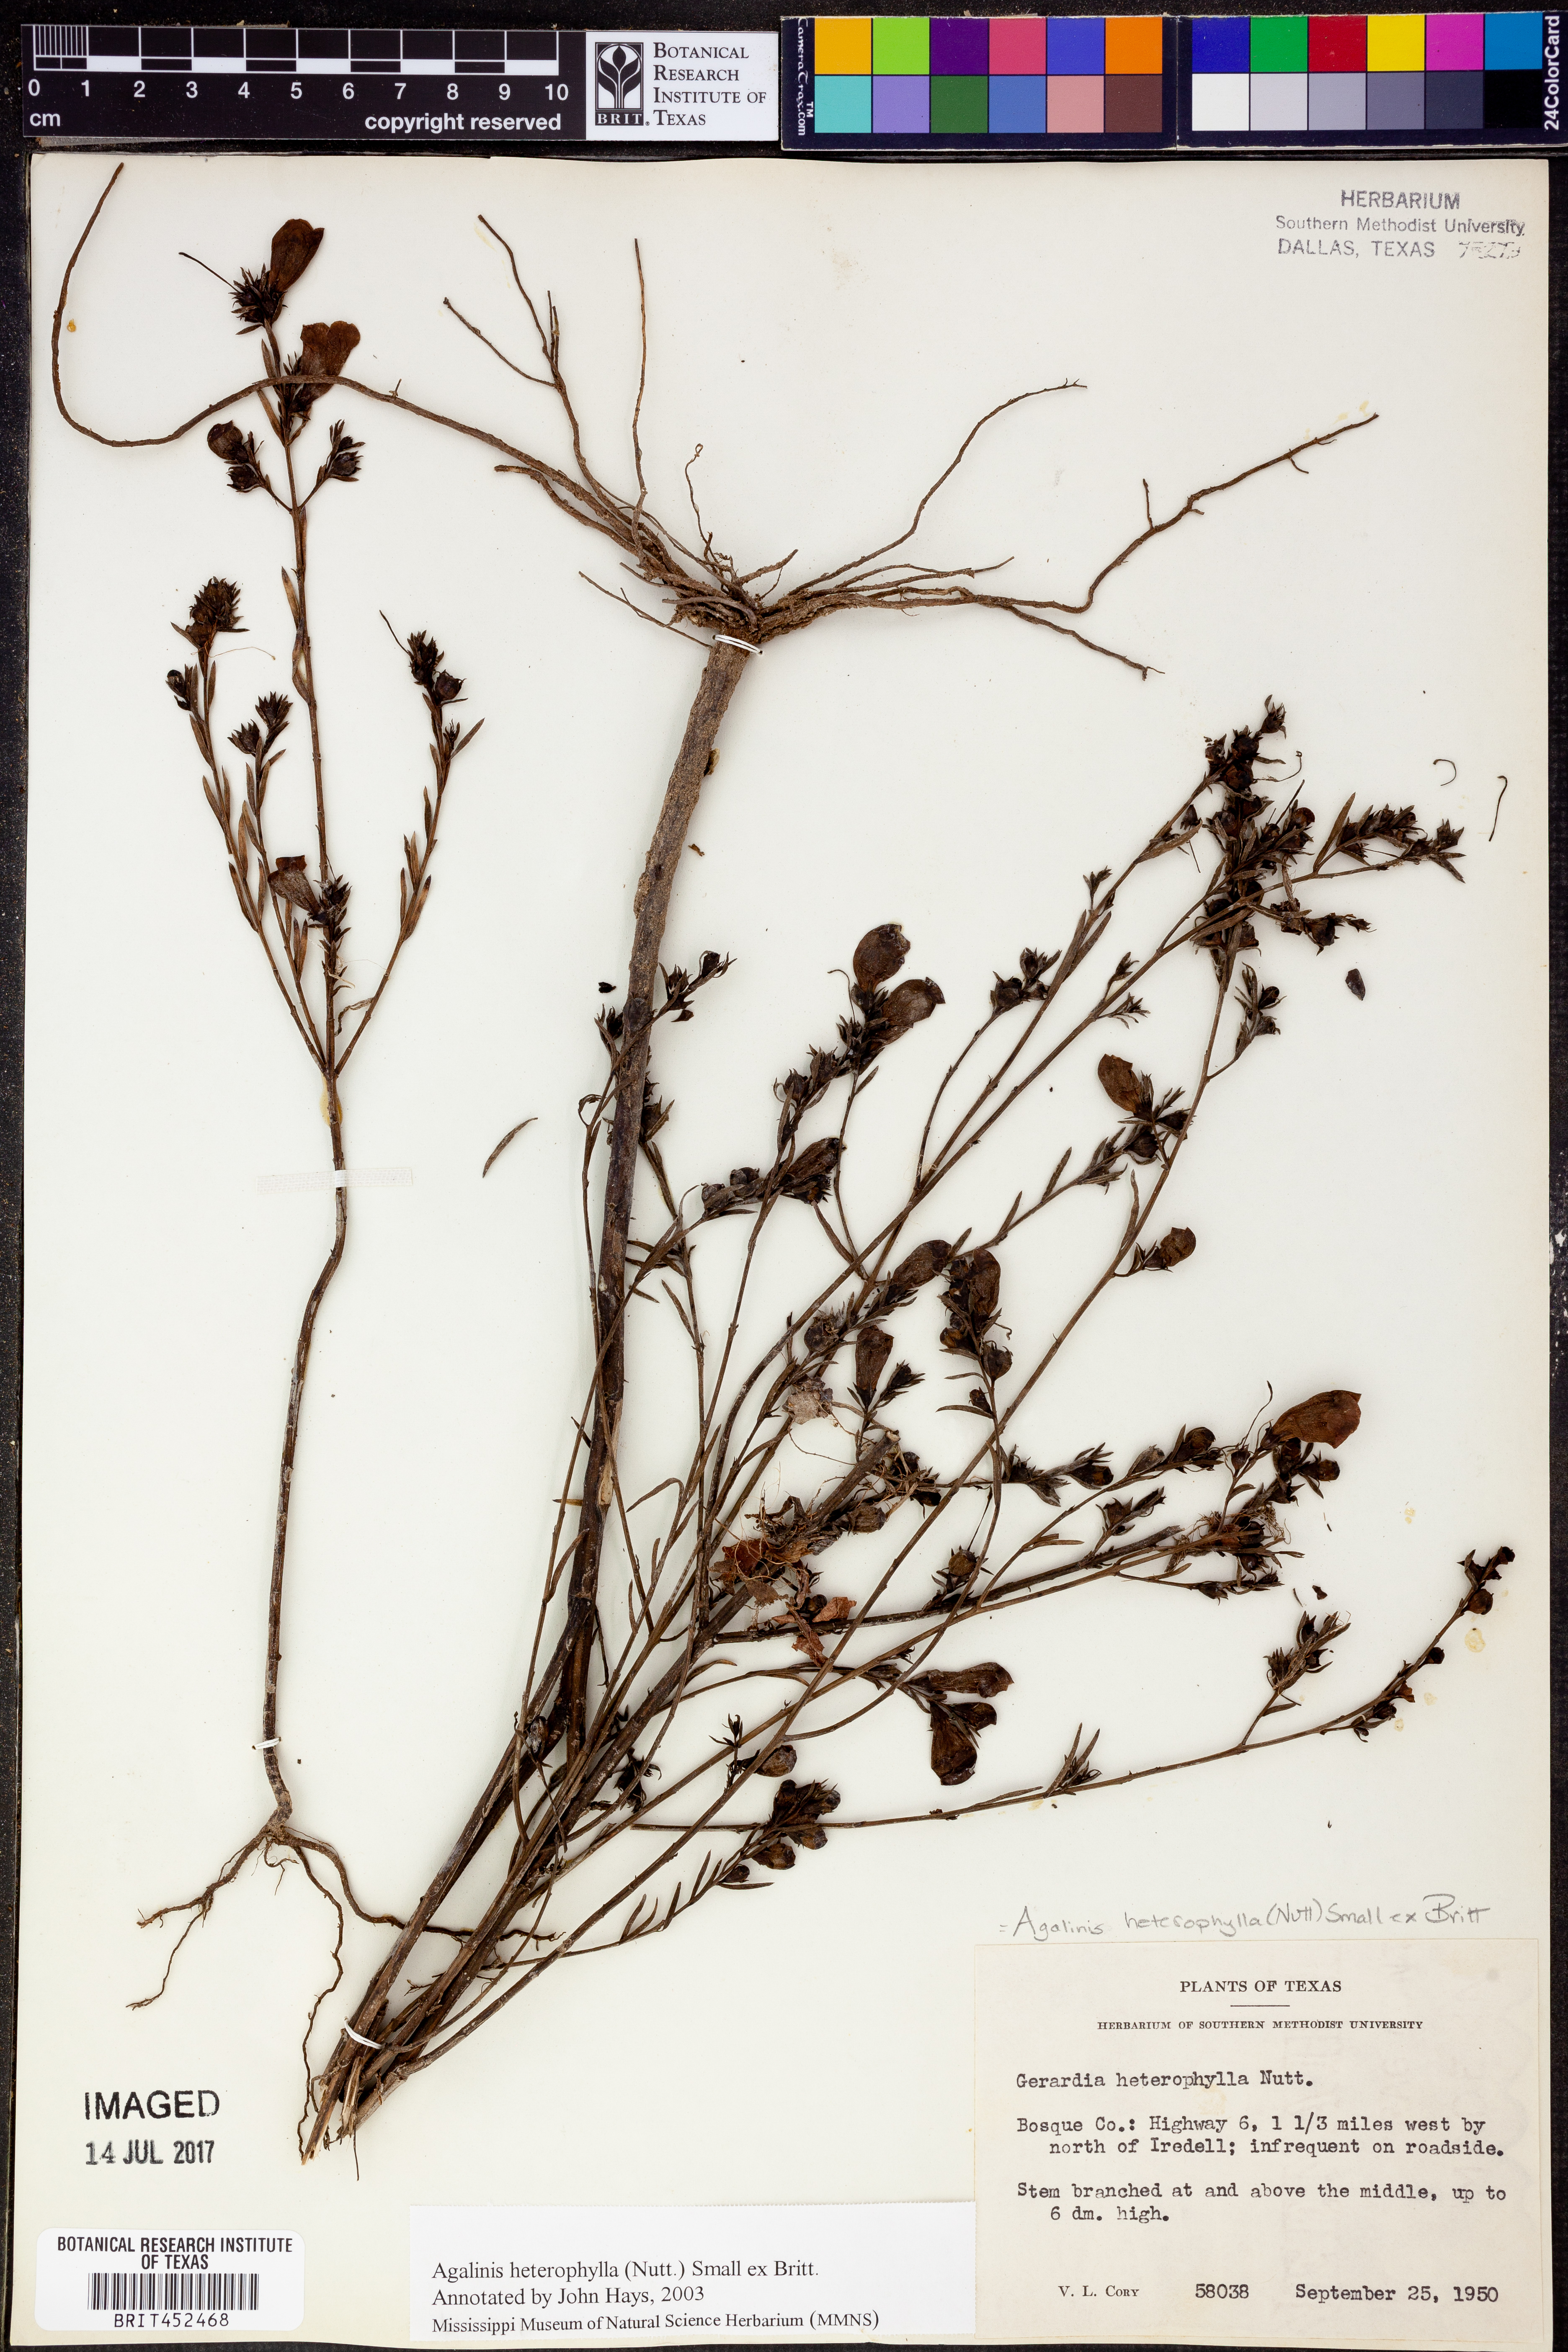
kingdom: Plantae
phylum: Tracheophyta
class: Magnoliopsida
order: Lamiales
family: Orobanchaceae
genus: Agalinis
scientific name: Agalinis heterophylla
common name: Prairie agalinis
